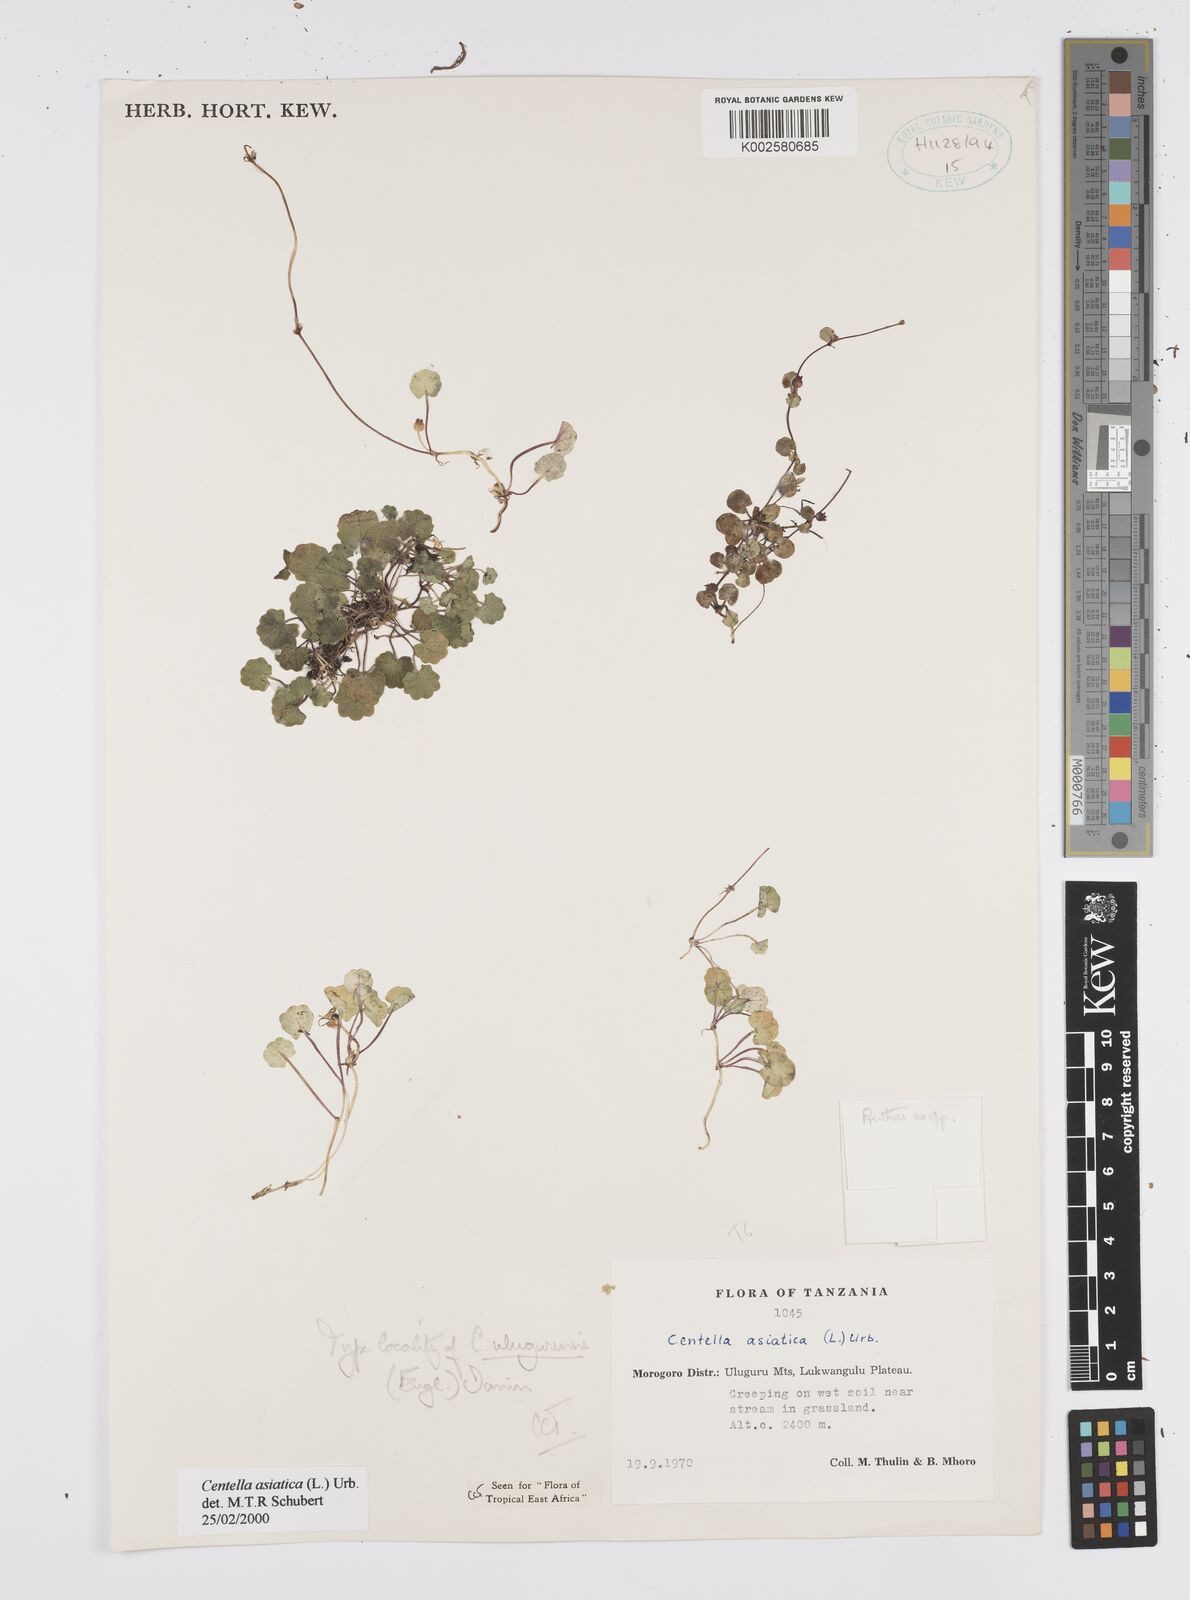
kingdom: Plantae
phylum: Tracheophyta
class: Magnoliopsida
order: Apiales
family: Apiaceae
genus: Centella
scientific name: Centella asiatica
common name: Spadeleaf
